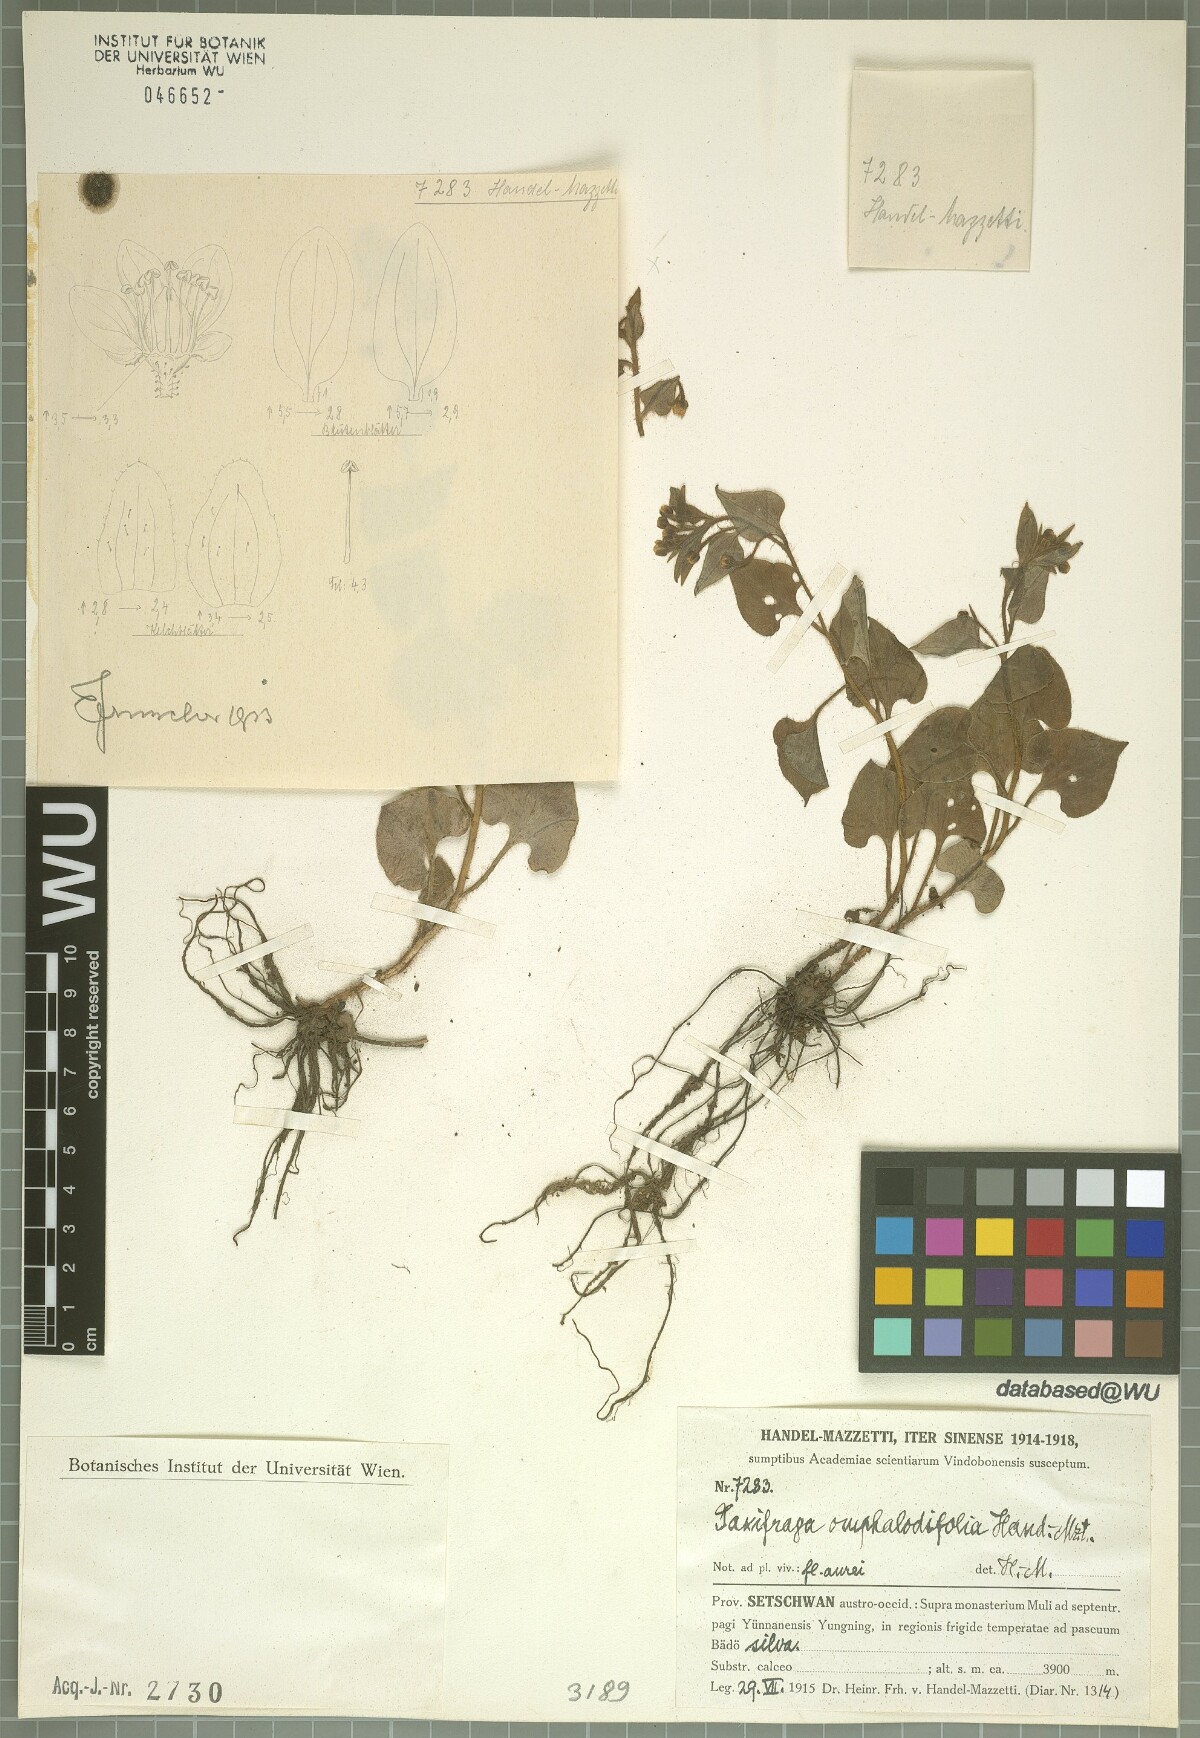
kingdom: Plantae
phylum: Tracheophyta
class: Magnoliopsida
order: Saxifragales
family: Saxifragaceae
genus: Saxifraga
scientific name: Saxifraga omphalodifolia
